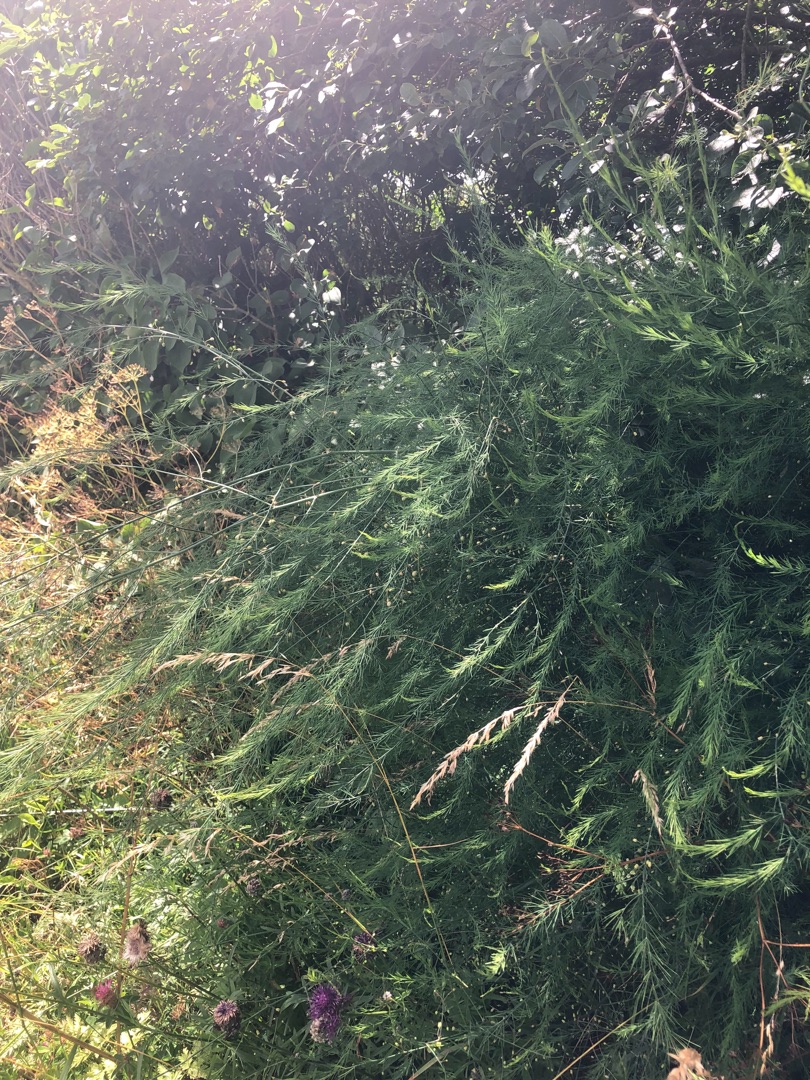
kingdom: Plantae
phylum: Tracheophyta
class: Liliopsida
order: Asparagales
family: Asparagaceae
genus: Asparagus
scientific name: Asparagus officinalis
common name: Asparges
